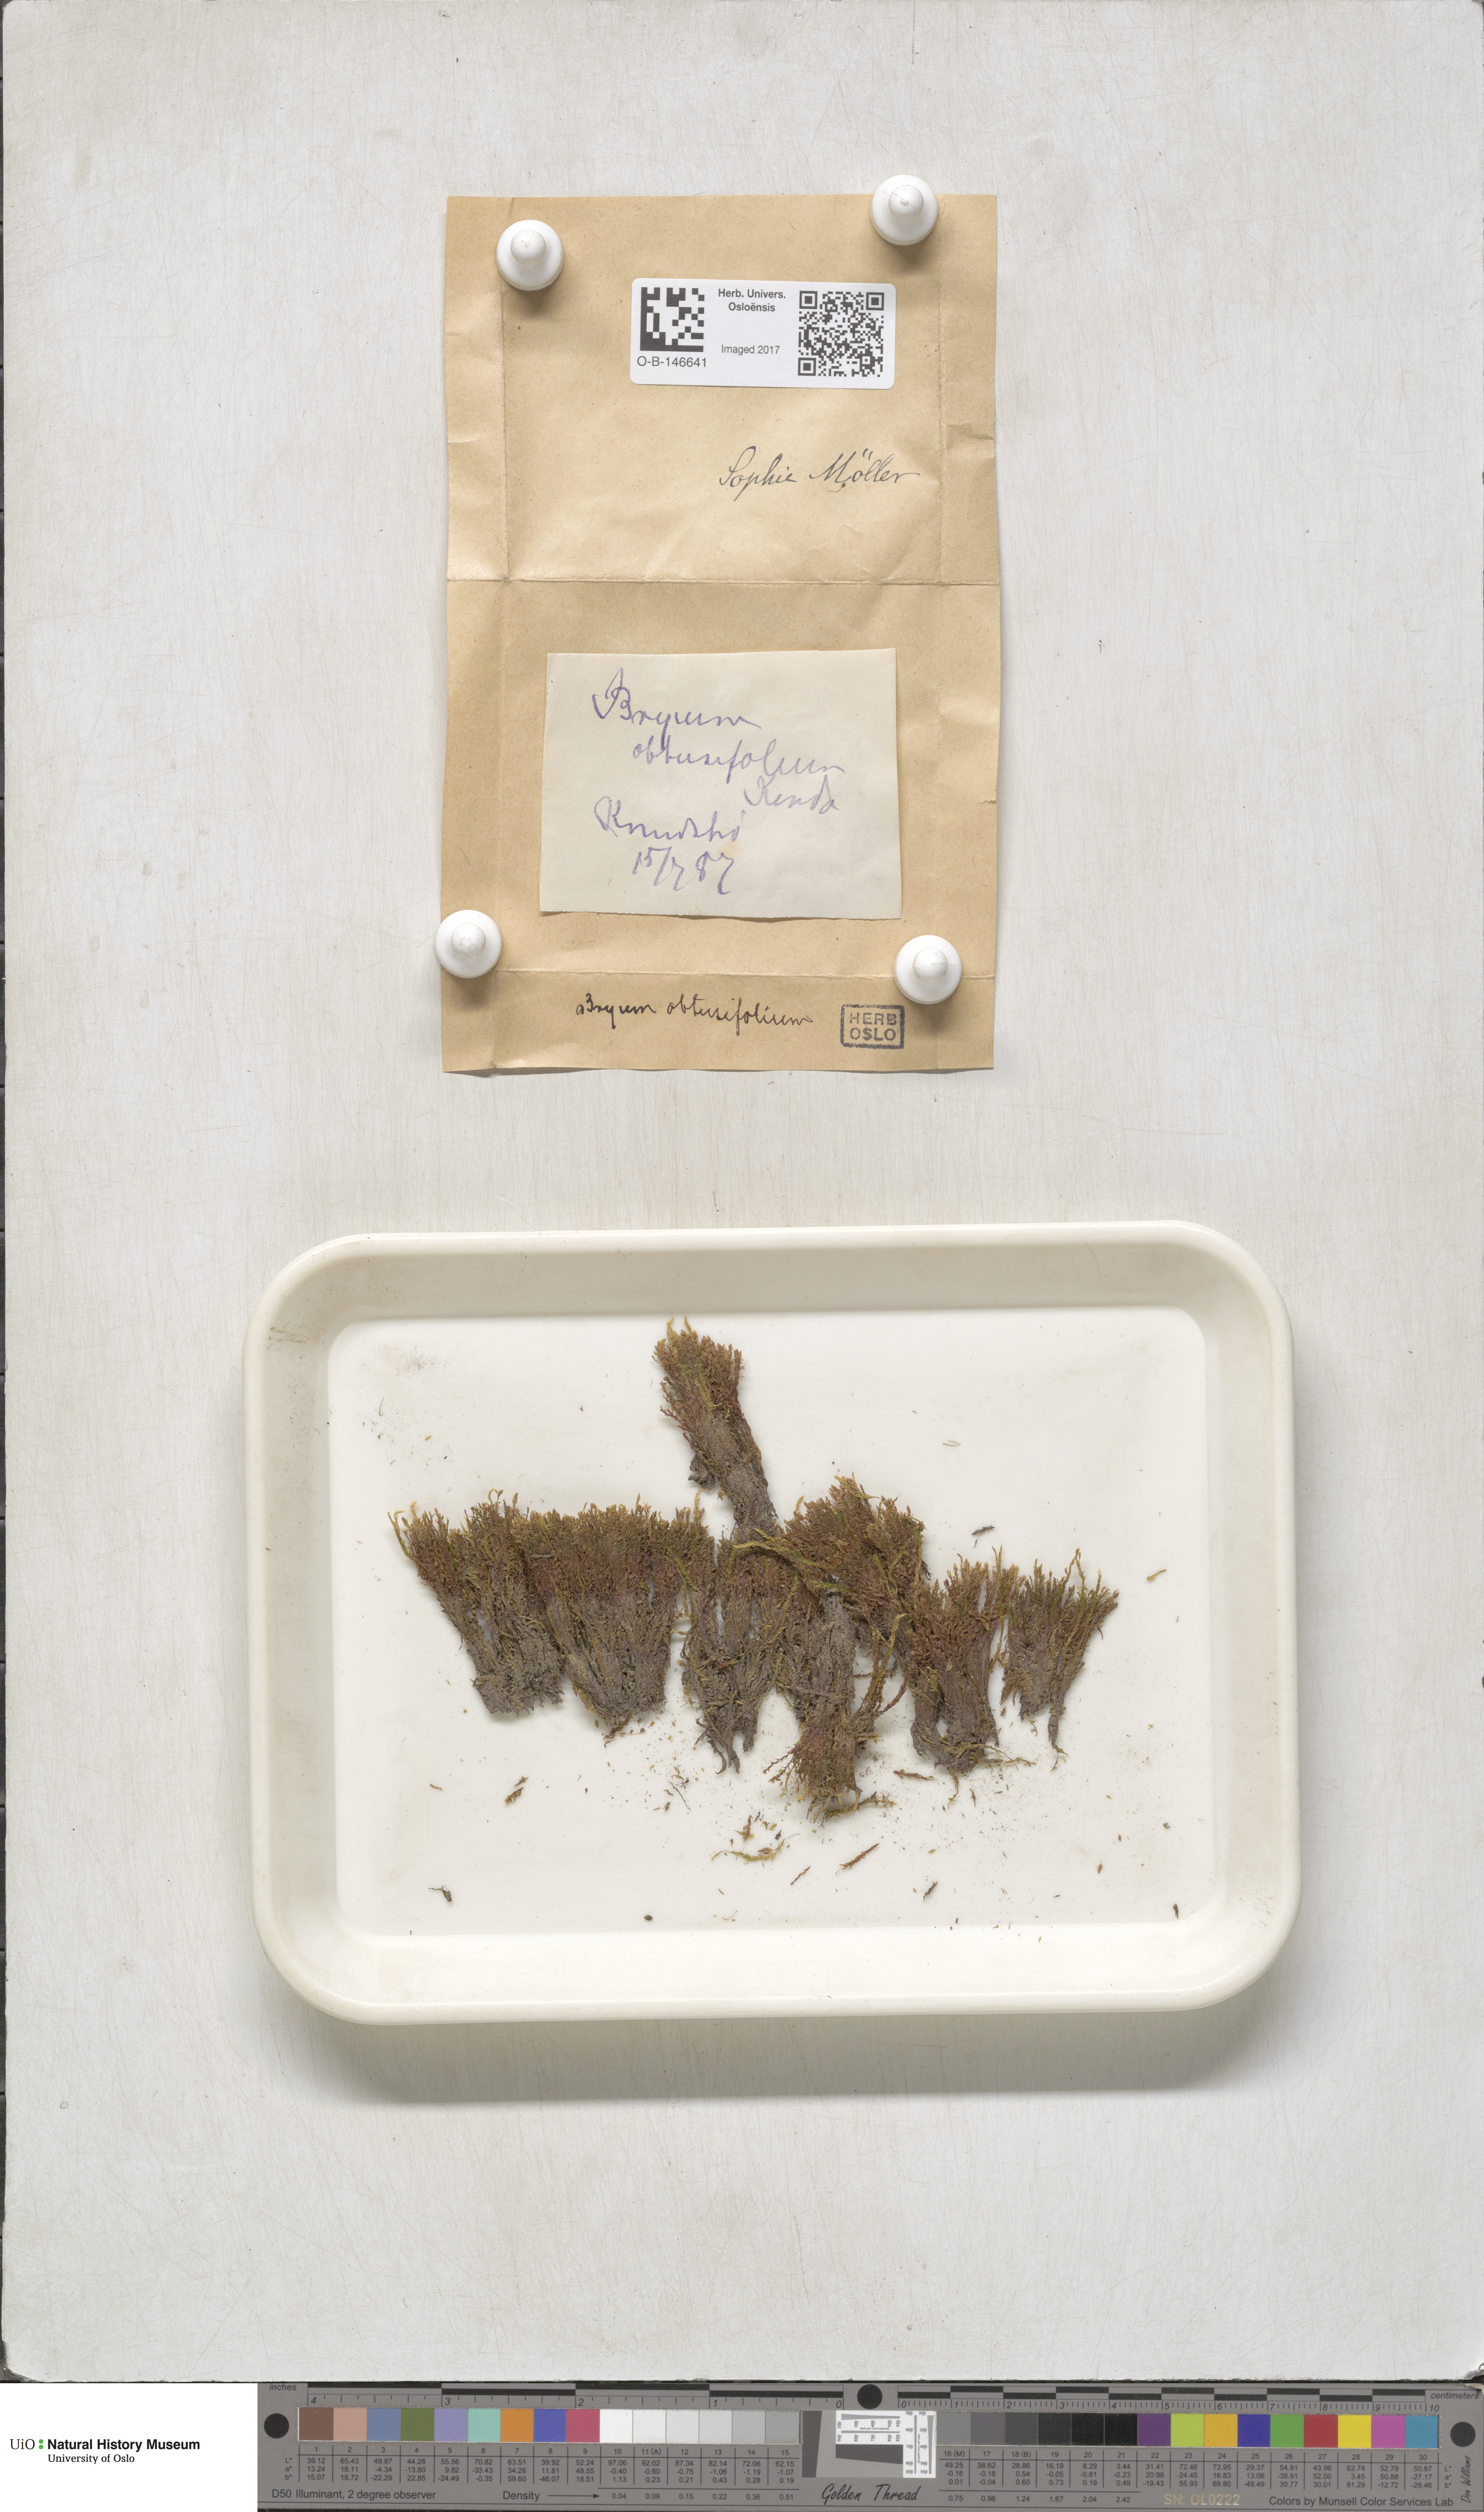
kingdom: Plantae
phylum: Bryophyta
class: Bryopsida
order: Bryales
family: Mniaceae
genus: Pohlia
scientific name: Pohlia obtusifolia
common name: Blunt nodding moss
